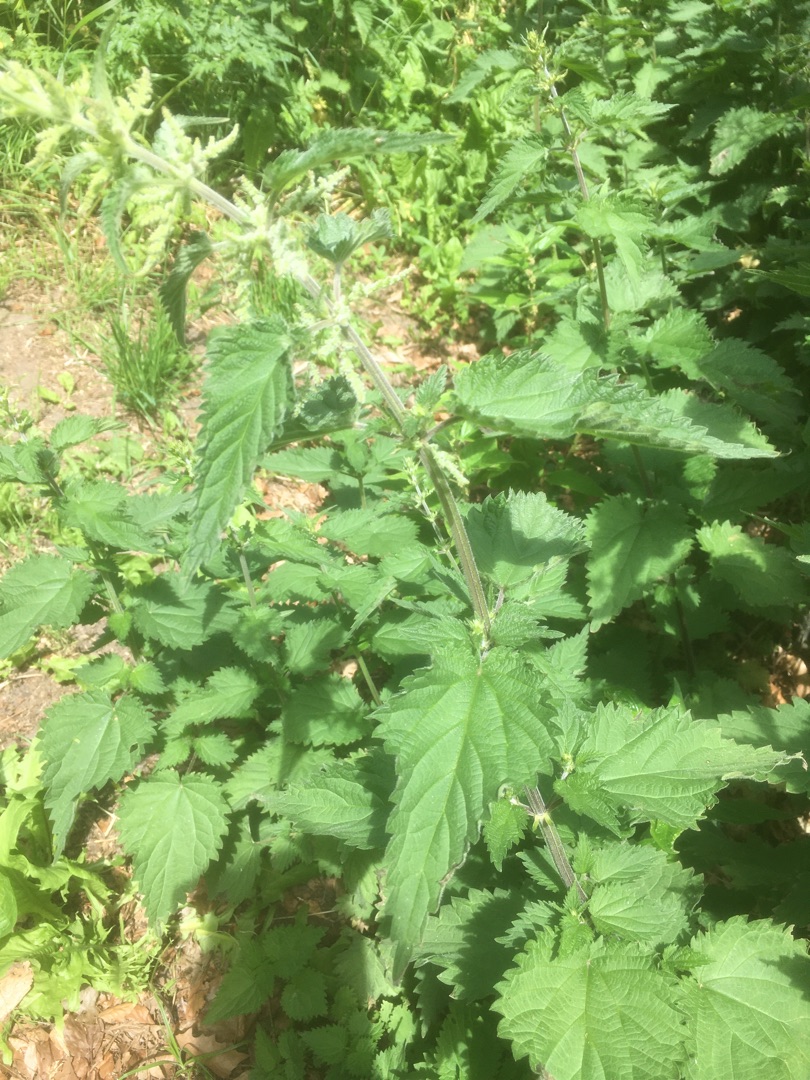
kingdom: Plantae
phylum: Tracheophyta
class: Magnoliopsida
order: Rosales
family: Urticaceae
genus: Urtica
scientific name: Urtica dioica
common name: Stor nælde
